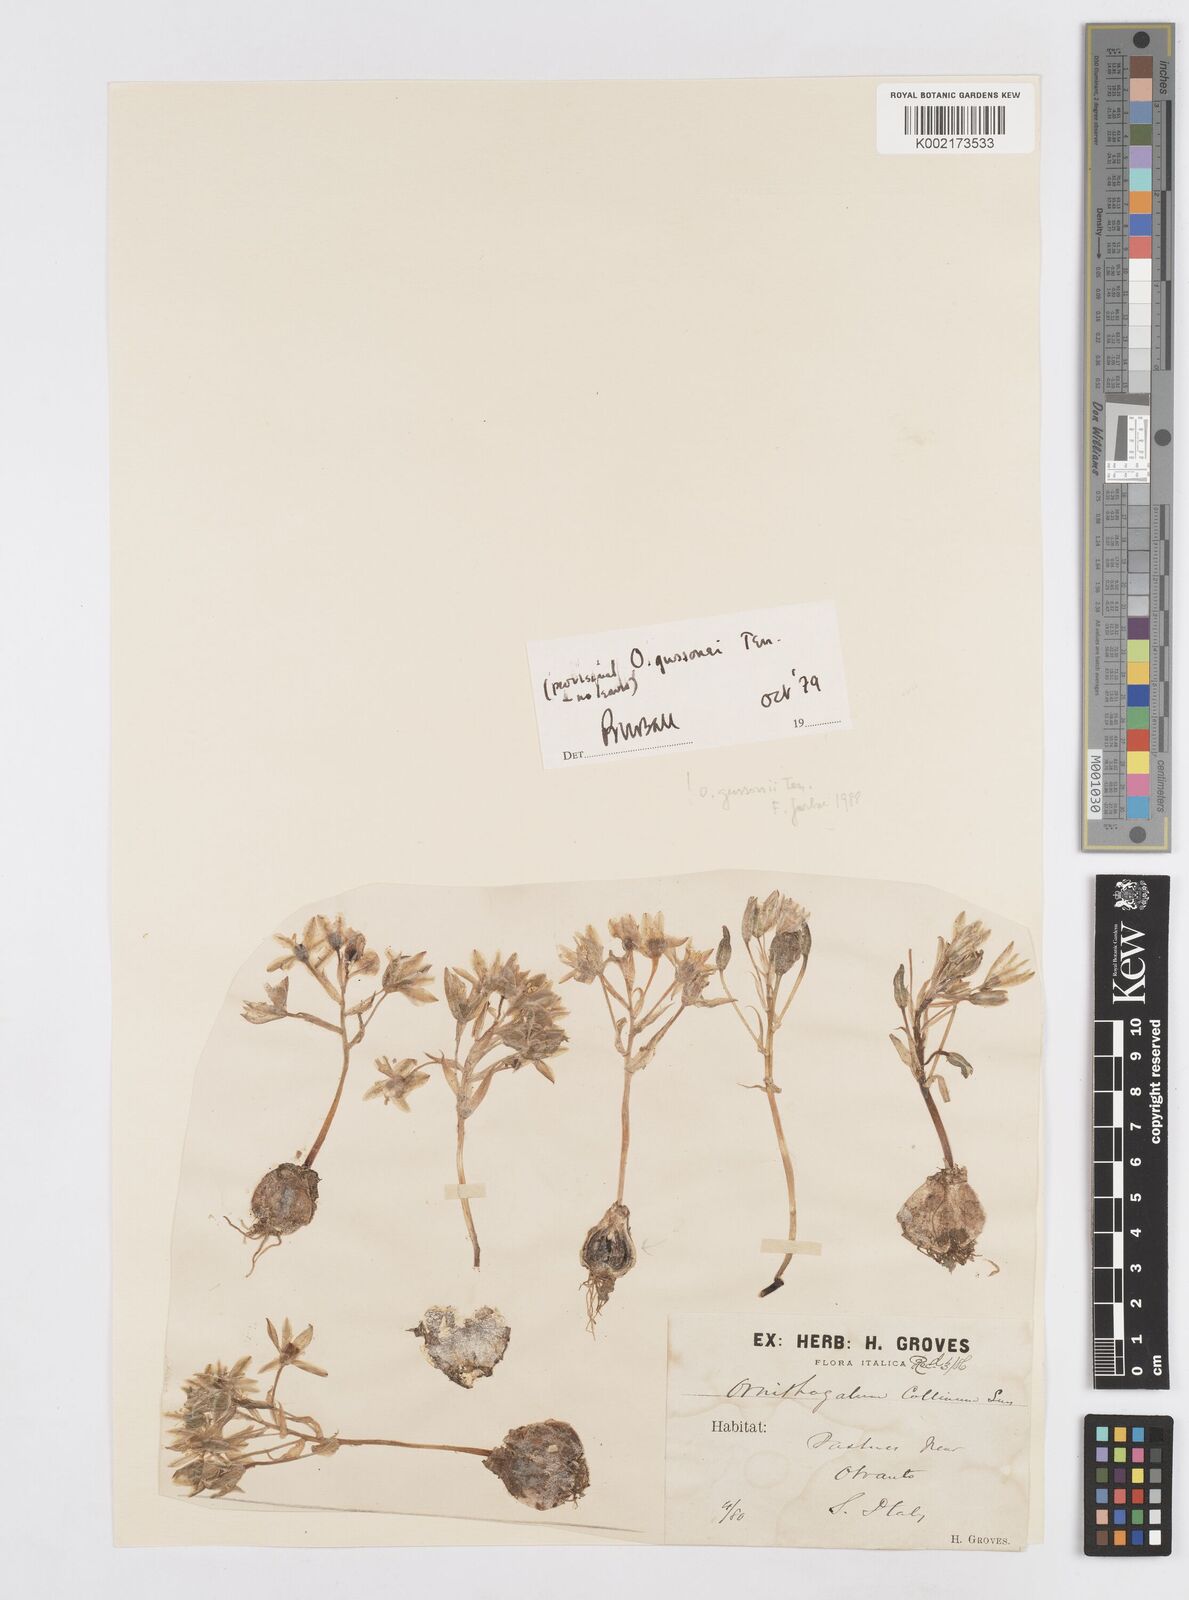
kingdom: Plantae
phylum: Tracheophyta
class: Liliopsida
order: Asparagales
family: Asparagaceae
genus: Ornithogalum
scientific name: Ornithogalum gussonei
